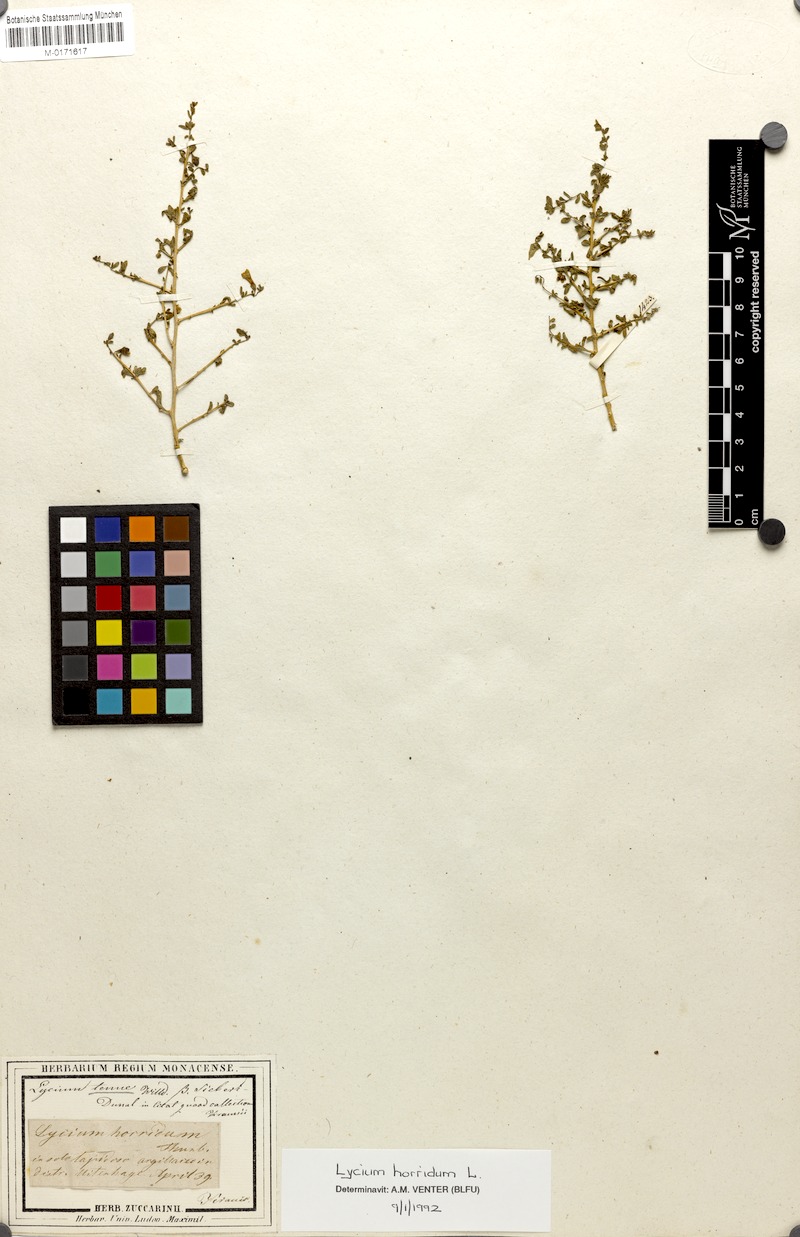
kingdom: Plantae
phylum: Tracheophyta
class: Magnoliopsida
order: Solanales
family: Solanaceae
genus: Lycium
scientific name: Lycium horridum
